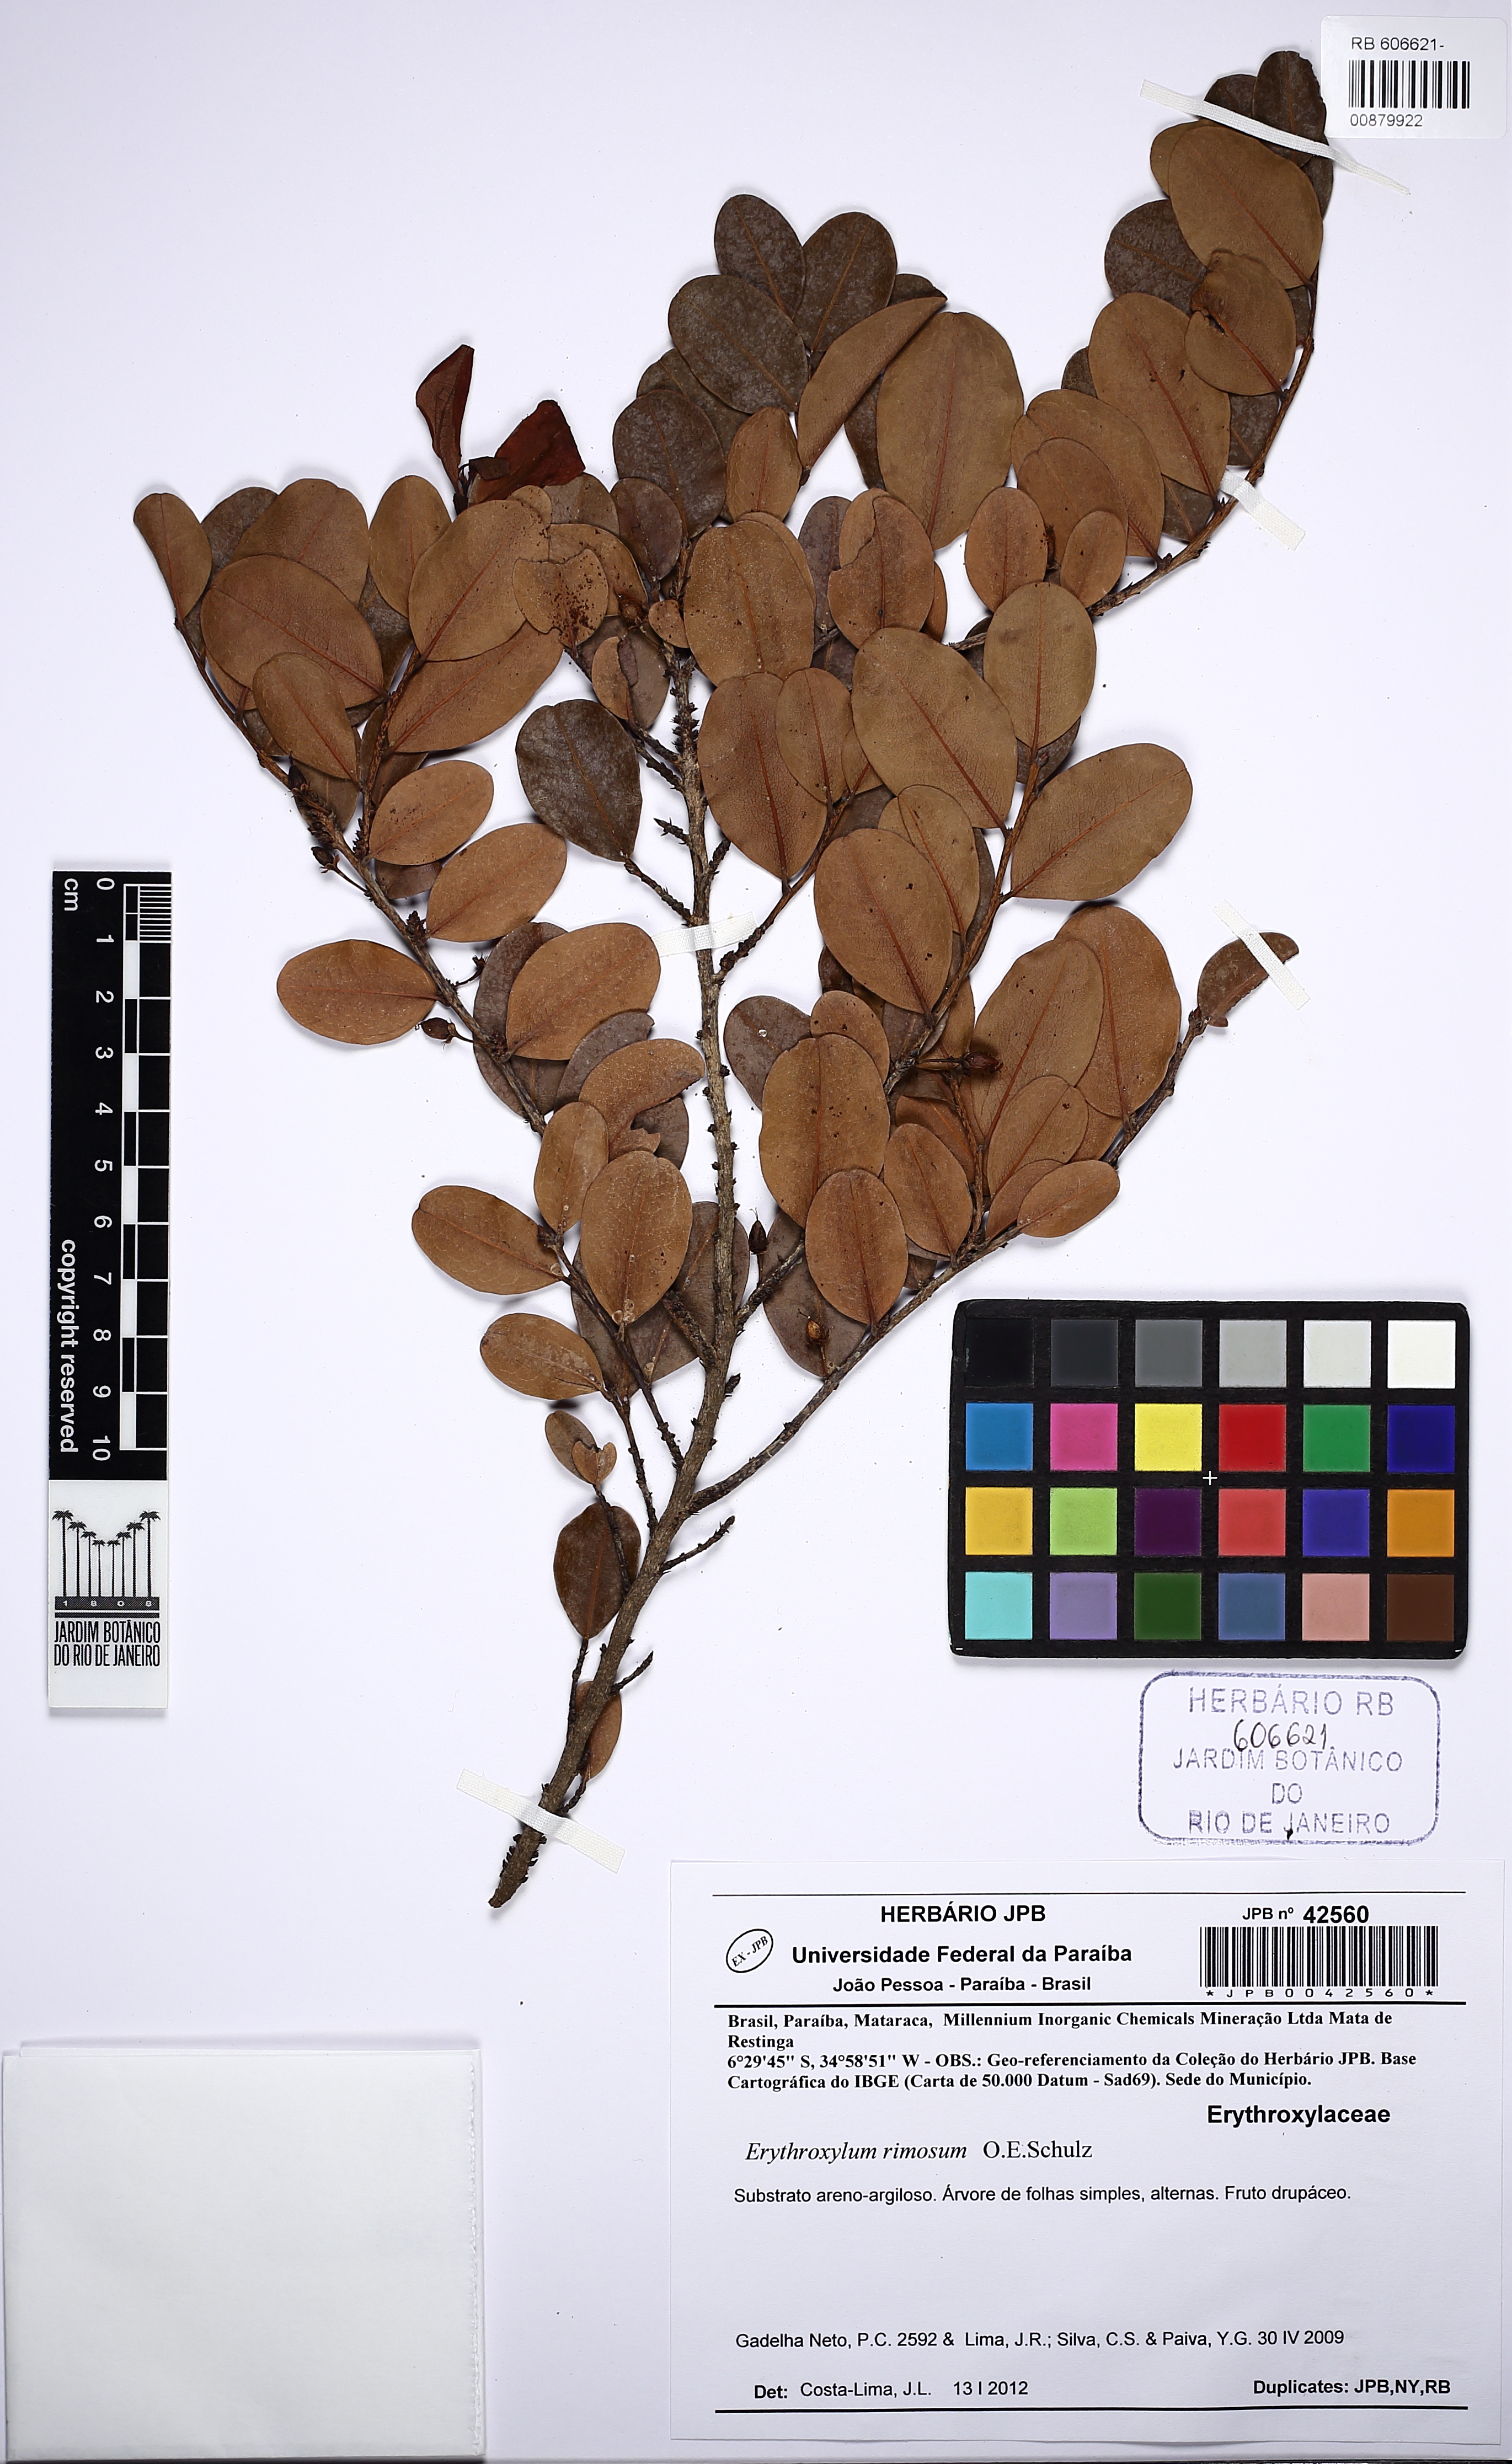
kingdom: Plantae
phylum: Tracheophyta
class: Magnoliopsida
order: Malpighiales
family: Erythroxylaceae
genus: Erythroxylum
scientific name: Erythroxylum rimosum
